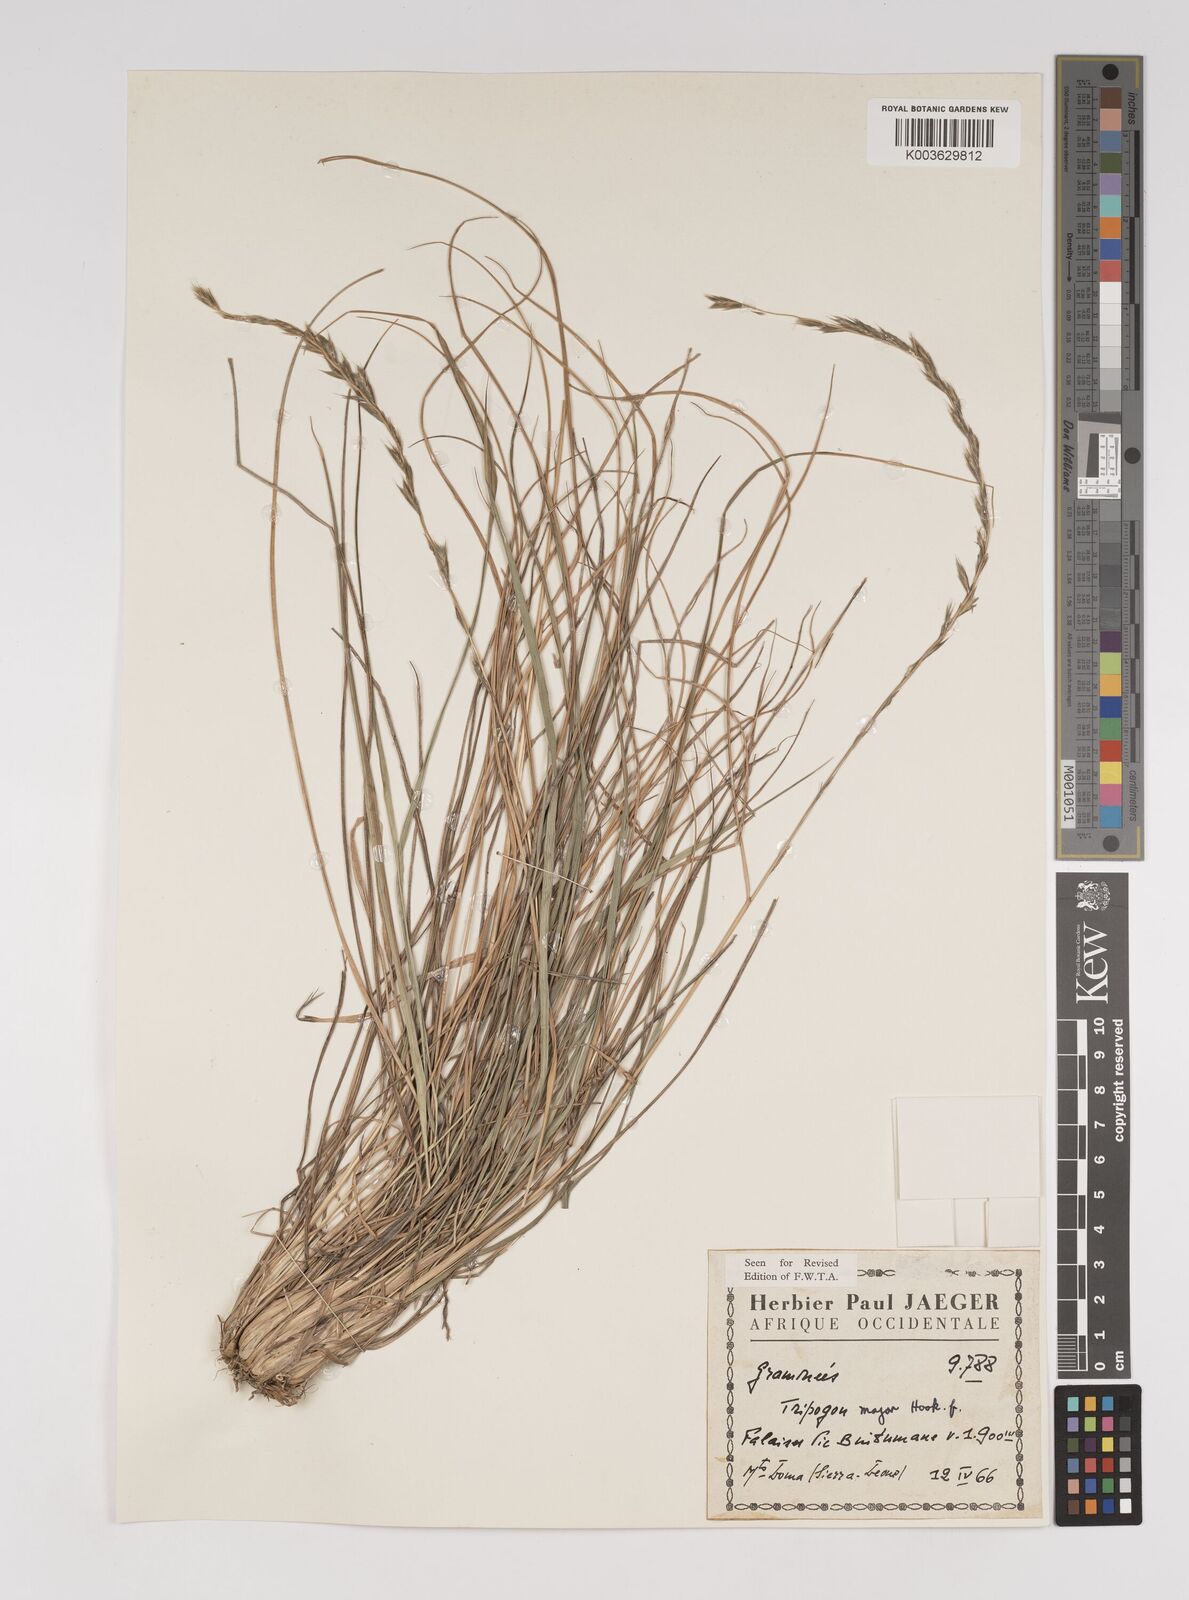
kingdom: Plantae
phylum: Tracheophyta
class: Liliopsida
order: Poales
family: Poaceae
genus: Tripogon
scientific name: Tripogon major
